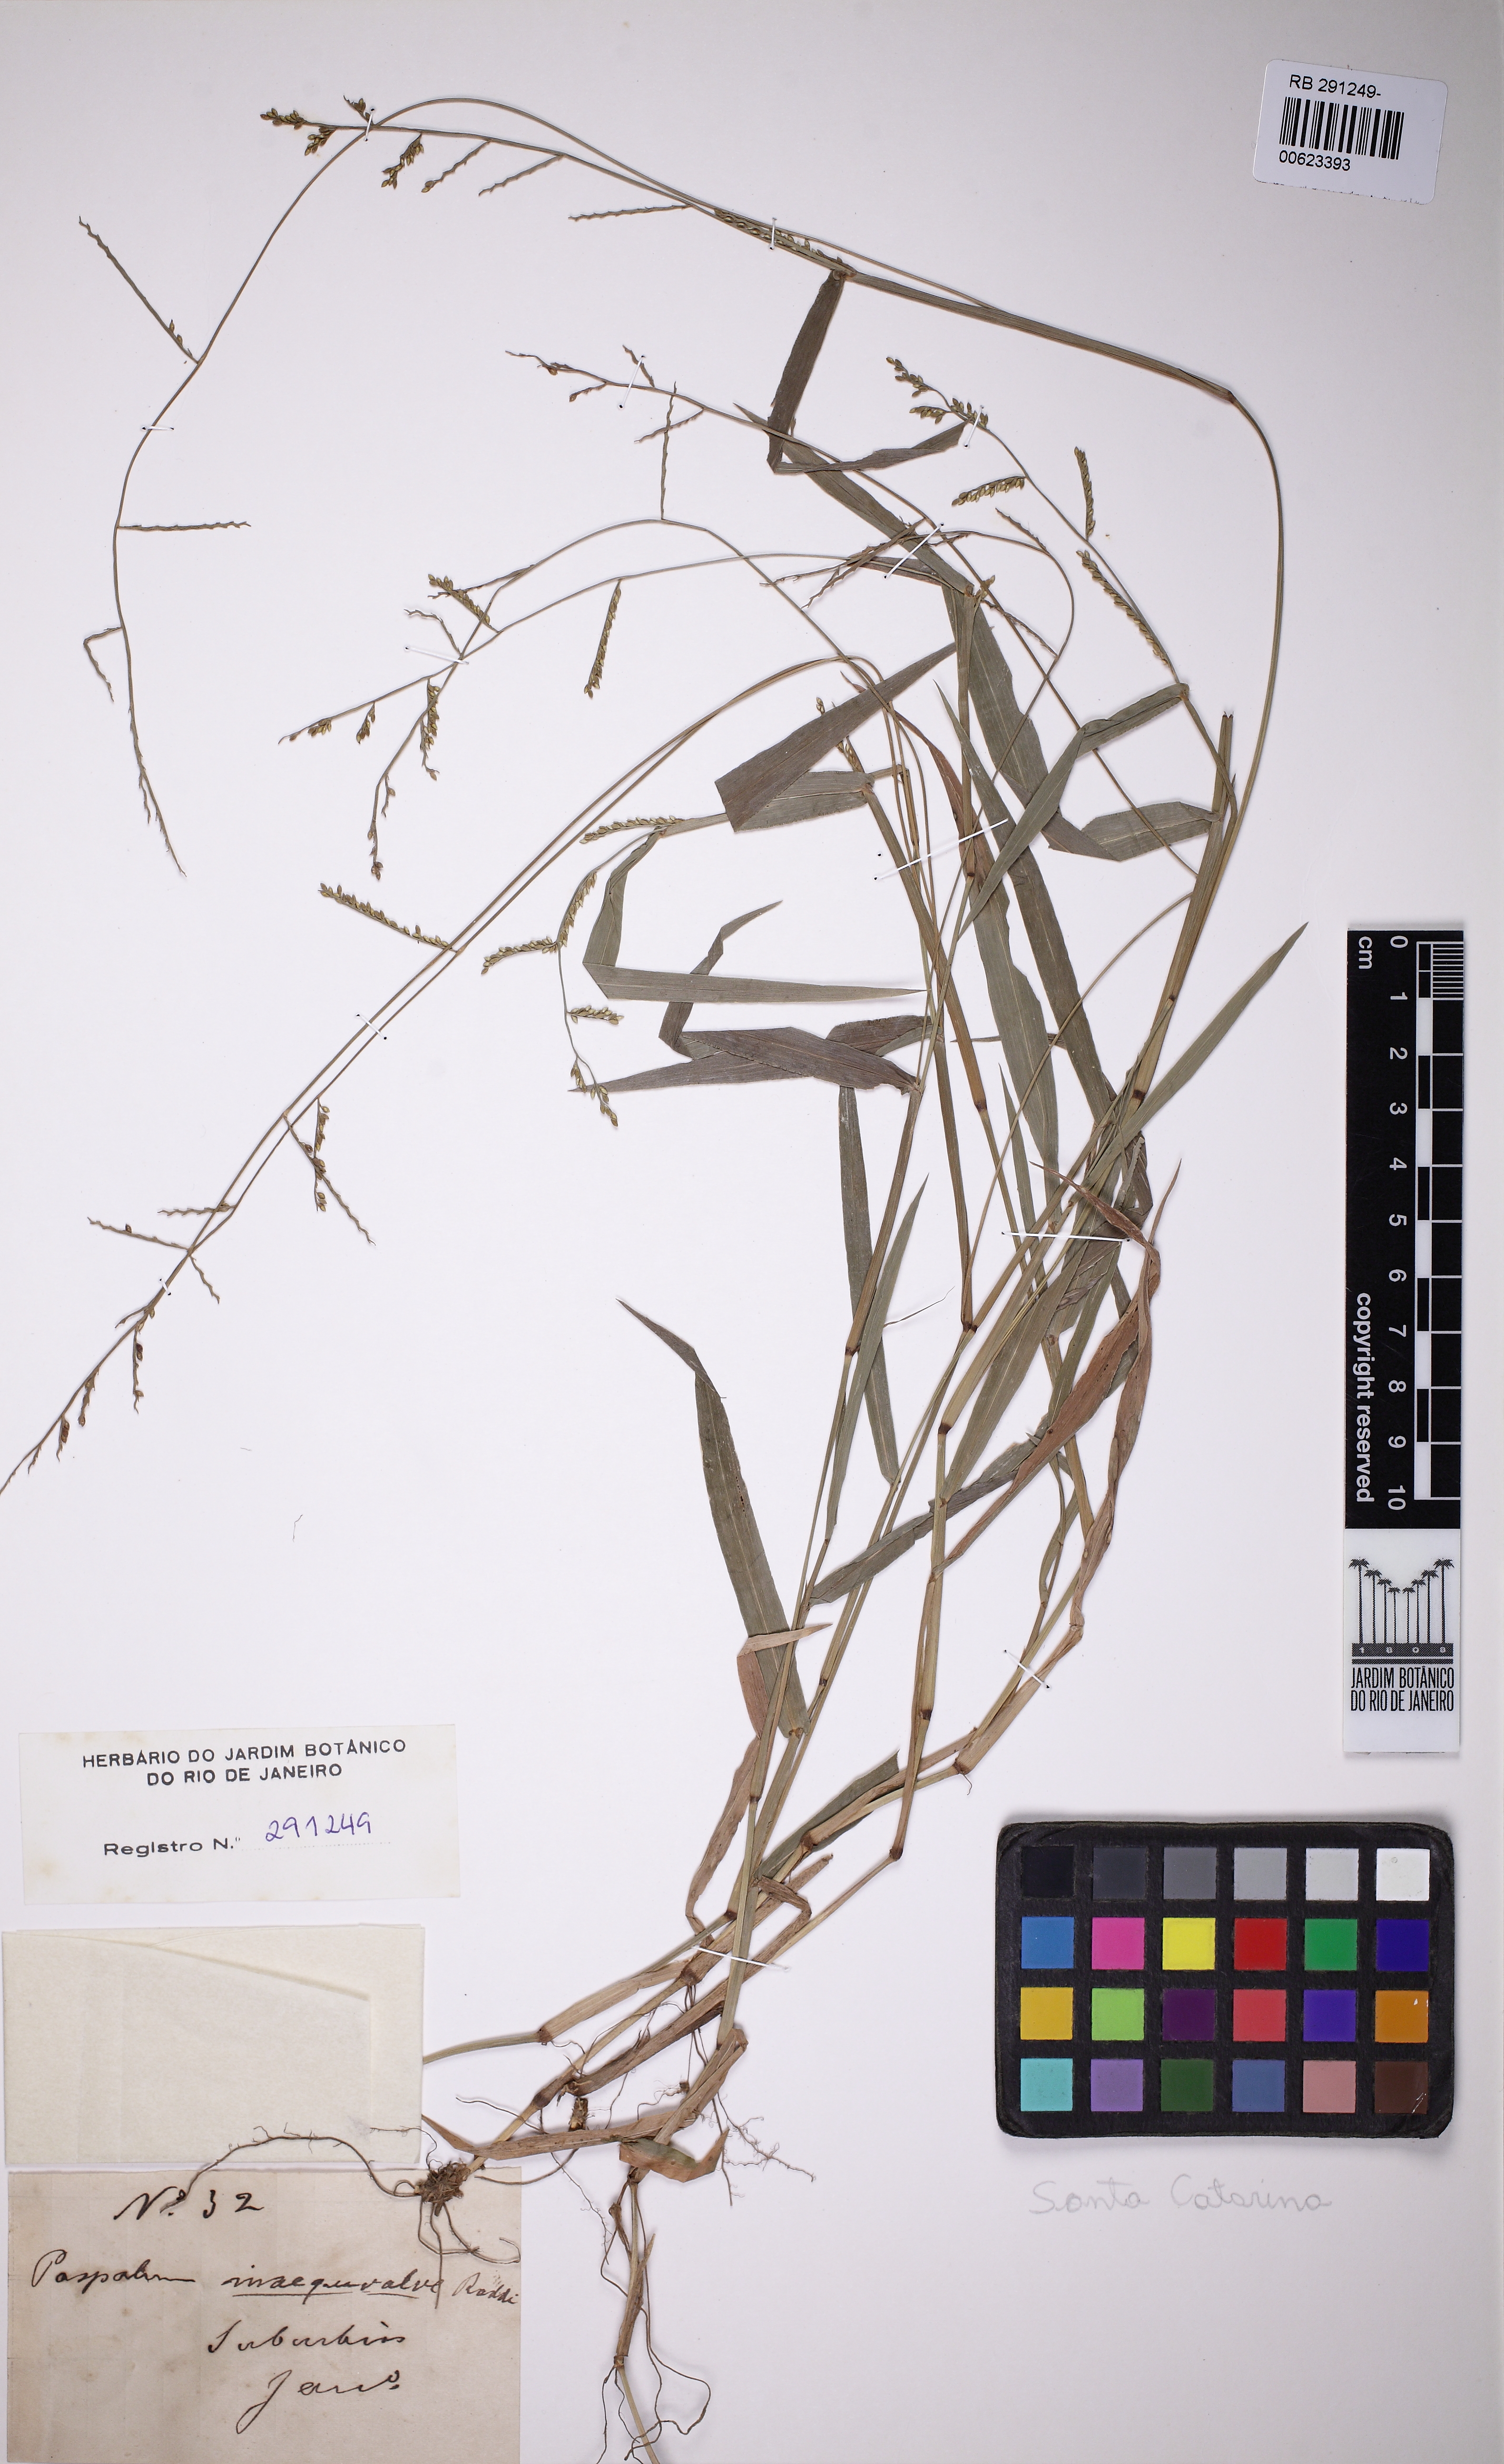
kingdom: Plantae
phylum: Tracheophyta
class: Liliopsida
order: Poales
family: Poaceae
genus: Paspalum
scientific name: Paspalum inaequivalve
